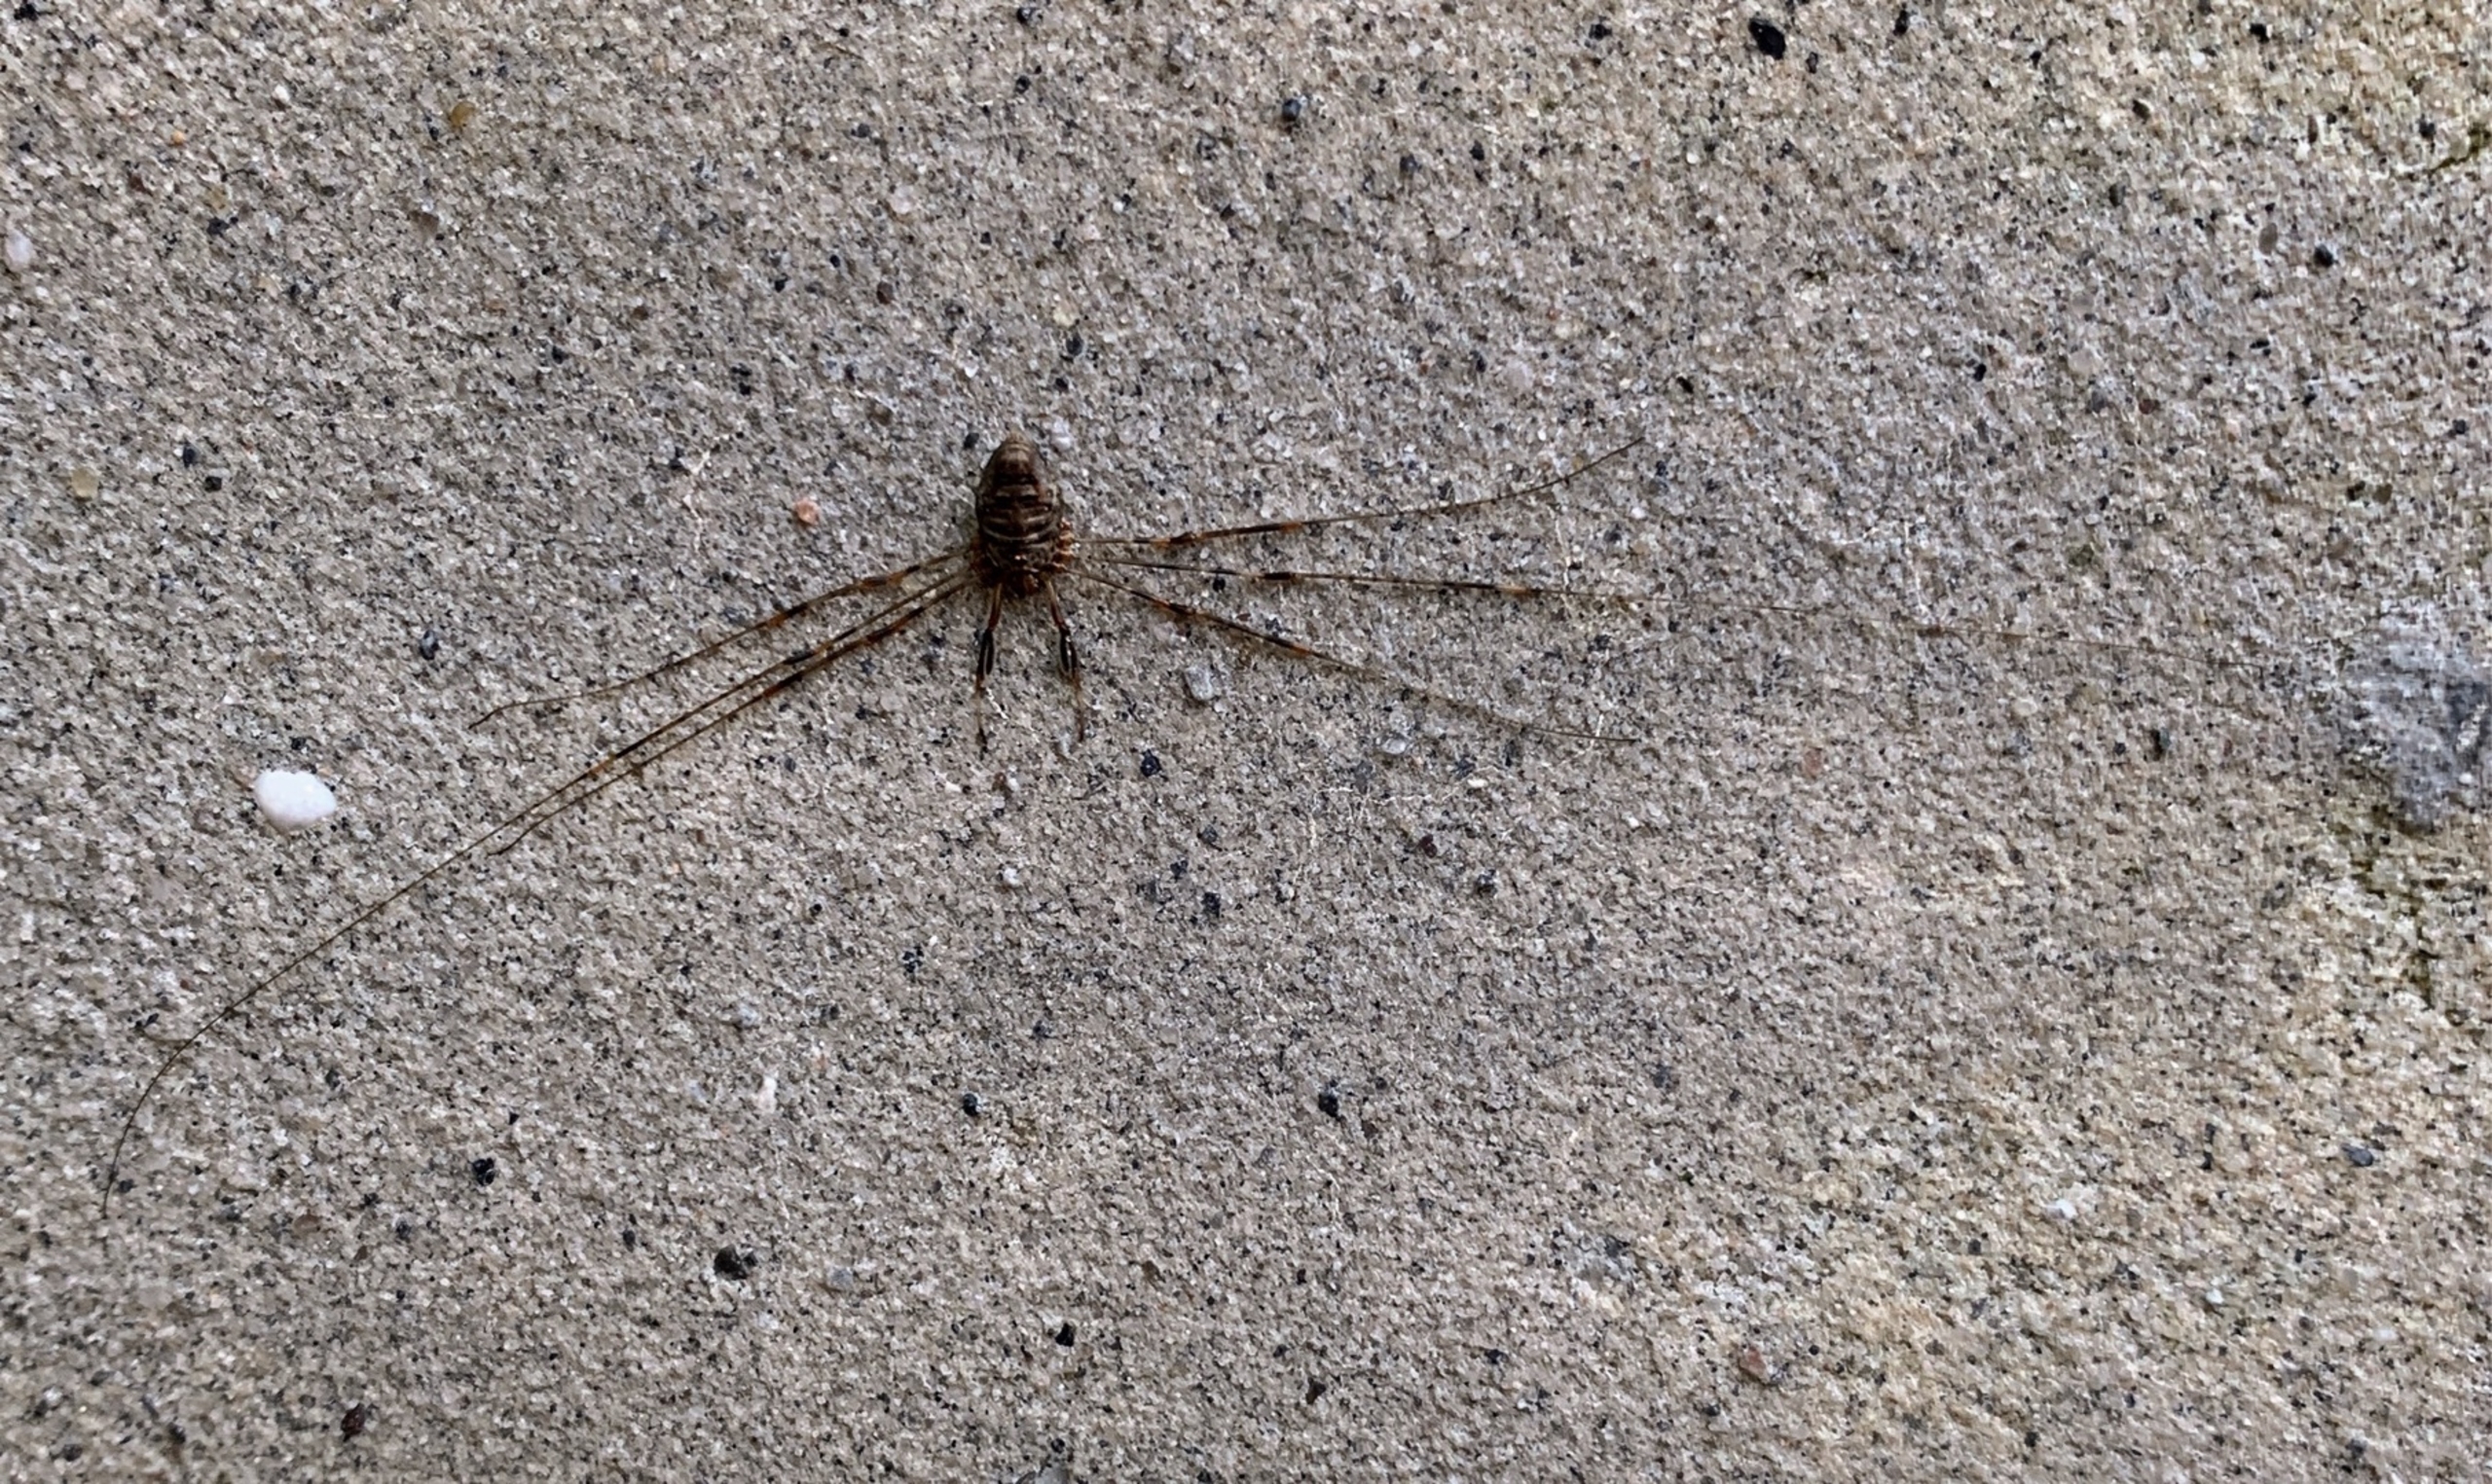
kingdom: Animalia
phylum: Arthropoda
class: Arachnida
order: Opiliones
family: Phalangiidae
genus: Dicranopalpus
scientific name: Dicranopalpus ramosus
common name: Gaffelmejer
